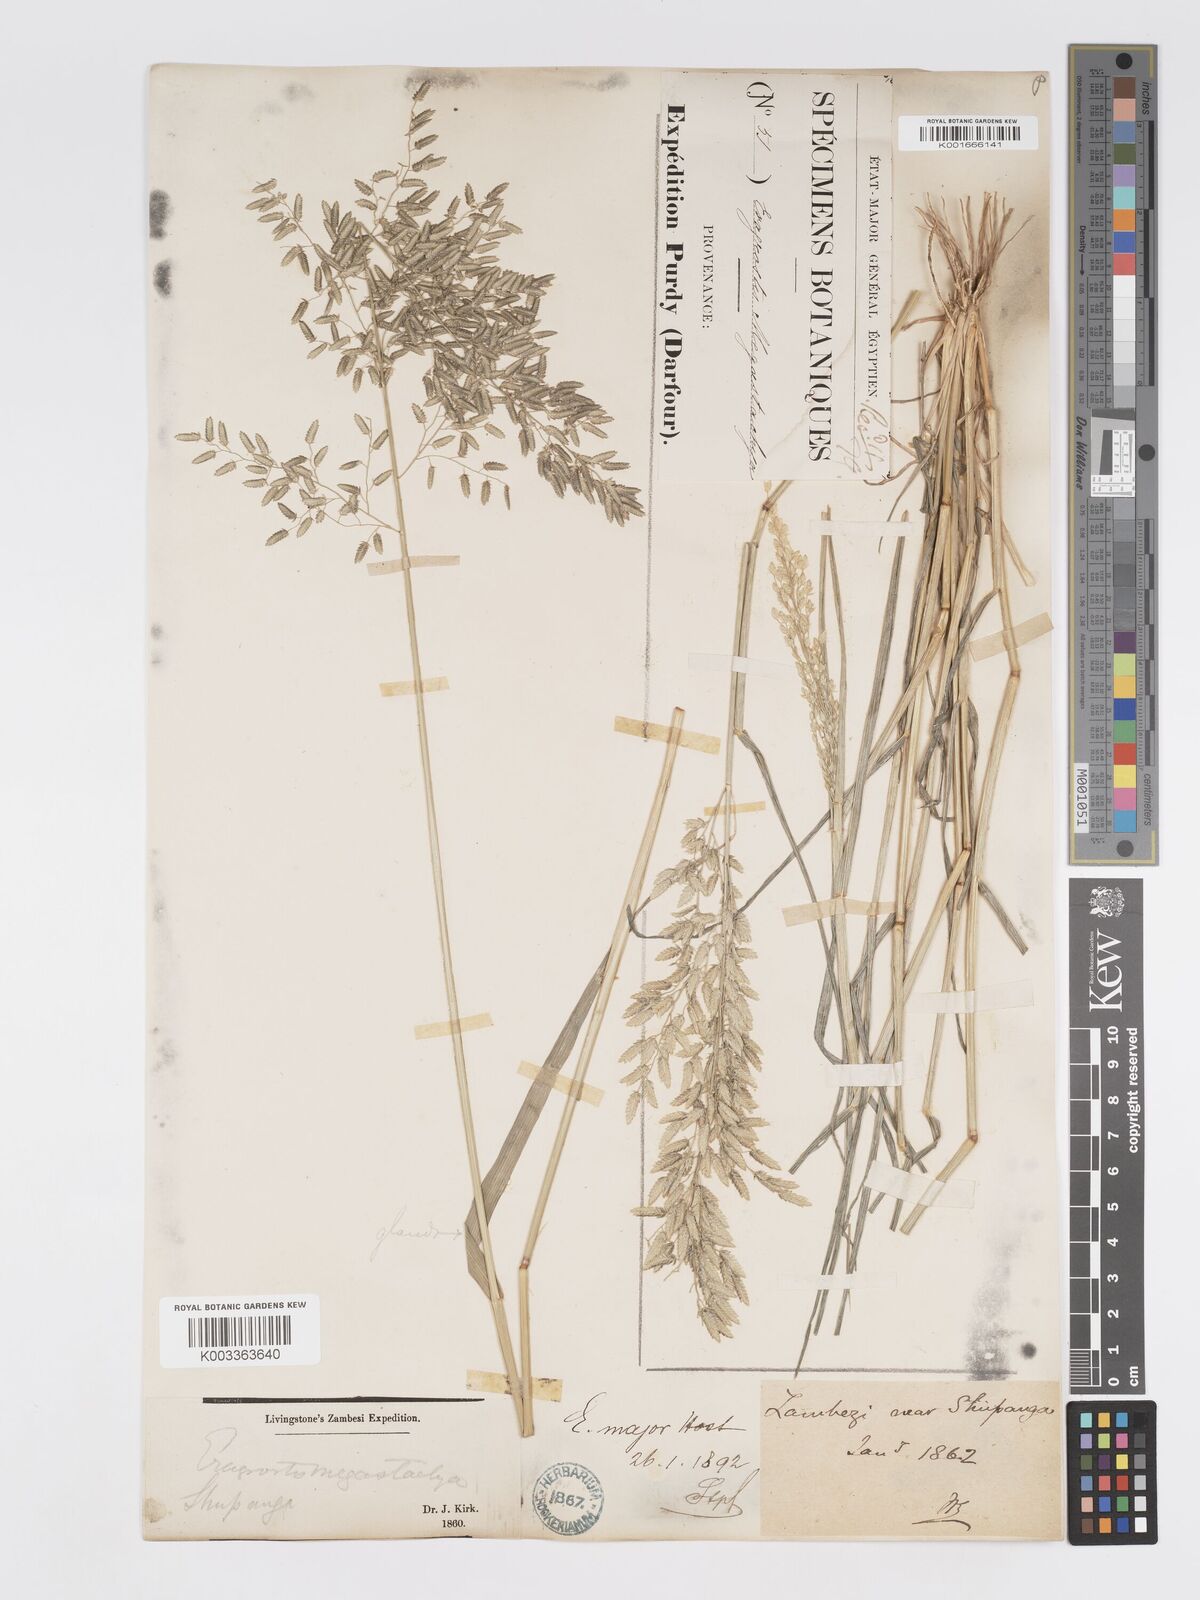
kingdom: Plantae
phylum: Tracheophyta
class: Liliopsida
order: Poales
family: Poaceae
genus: Eragrostis
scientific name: Eragrostis cilianensis
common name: Stinkgrass
